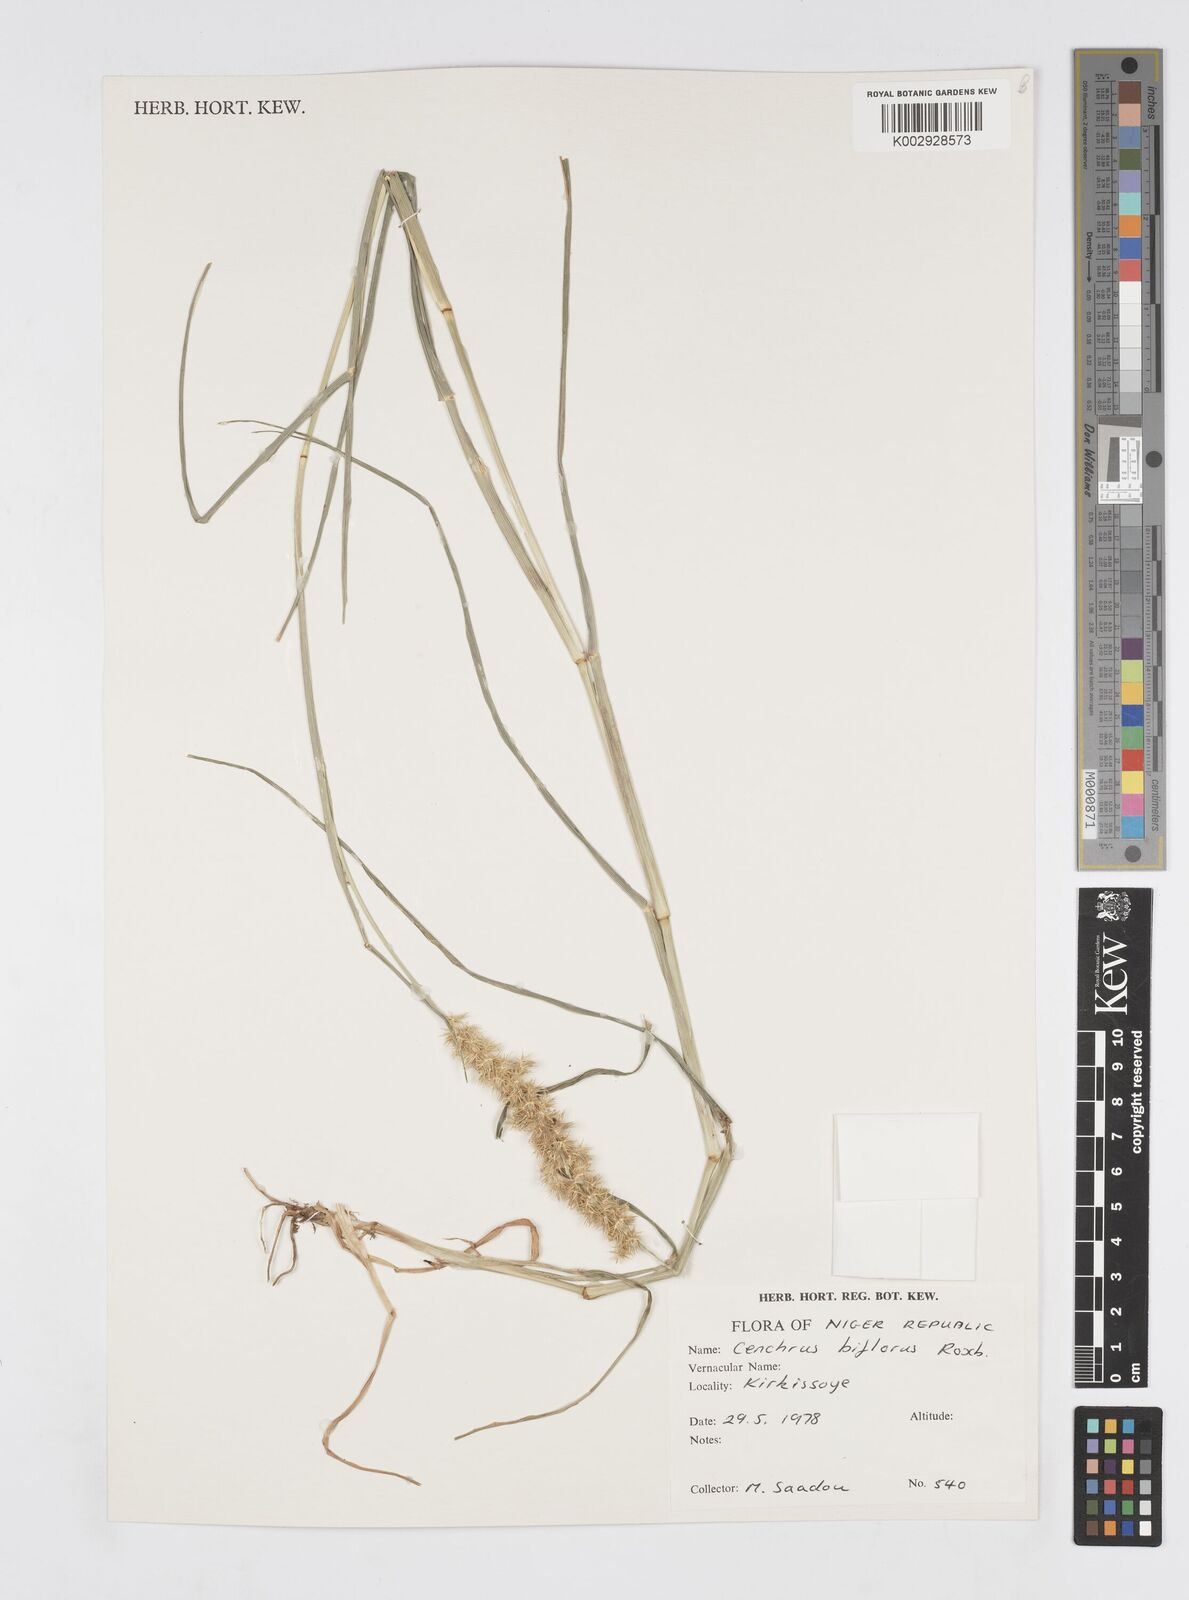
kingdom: Plantae
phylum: Tracheophyta
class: Liliopsida
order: Poales
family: Poaceae
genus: Cenchrus
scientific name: Cenchrus biflorus
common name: Indian sandbur
